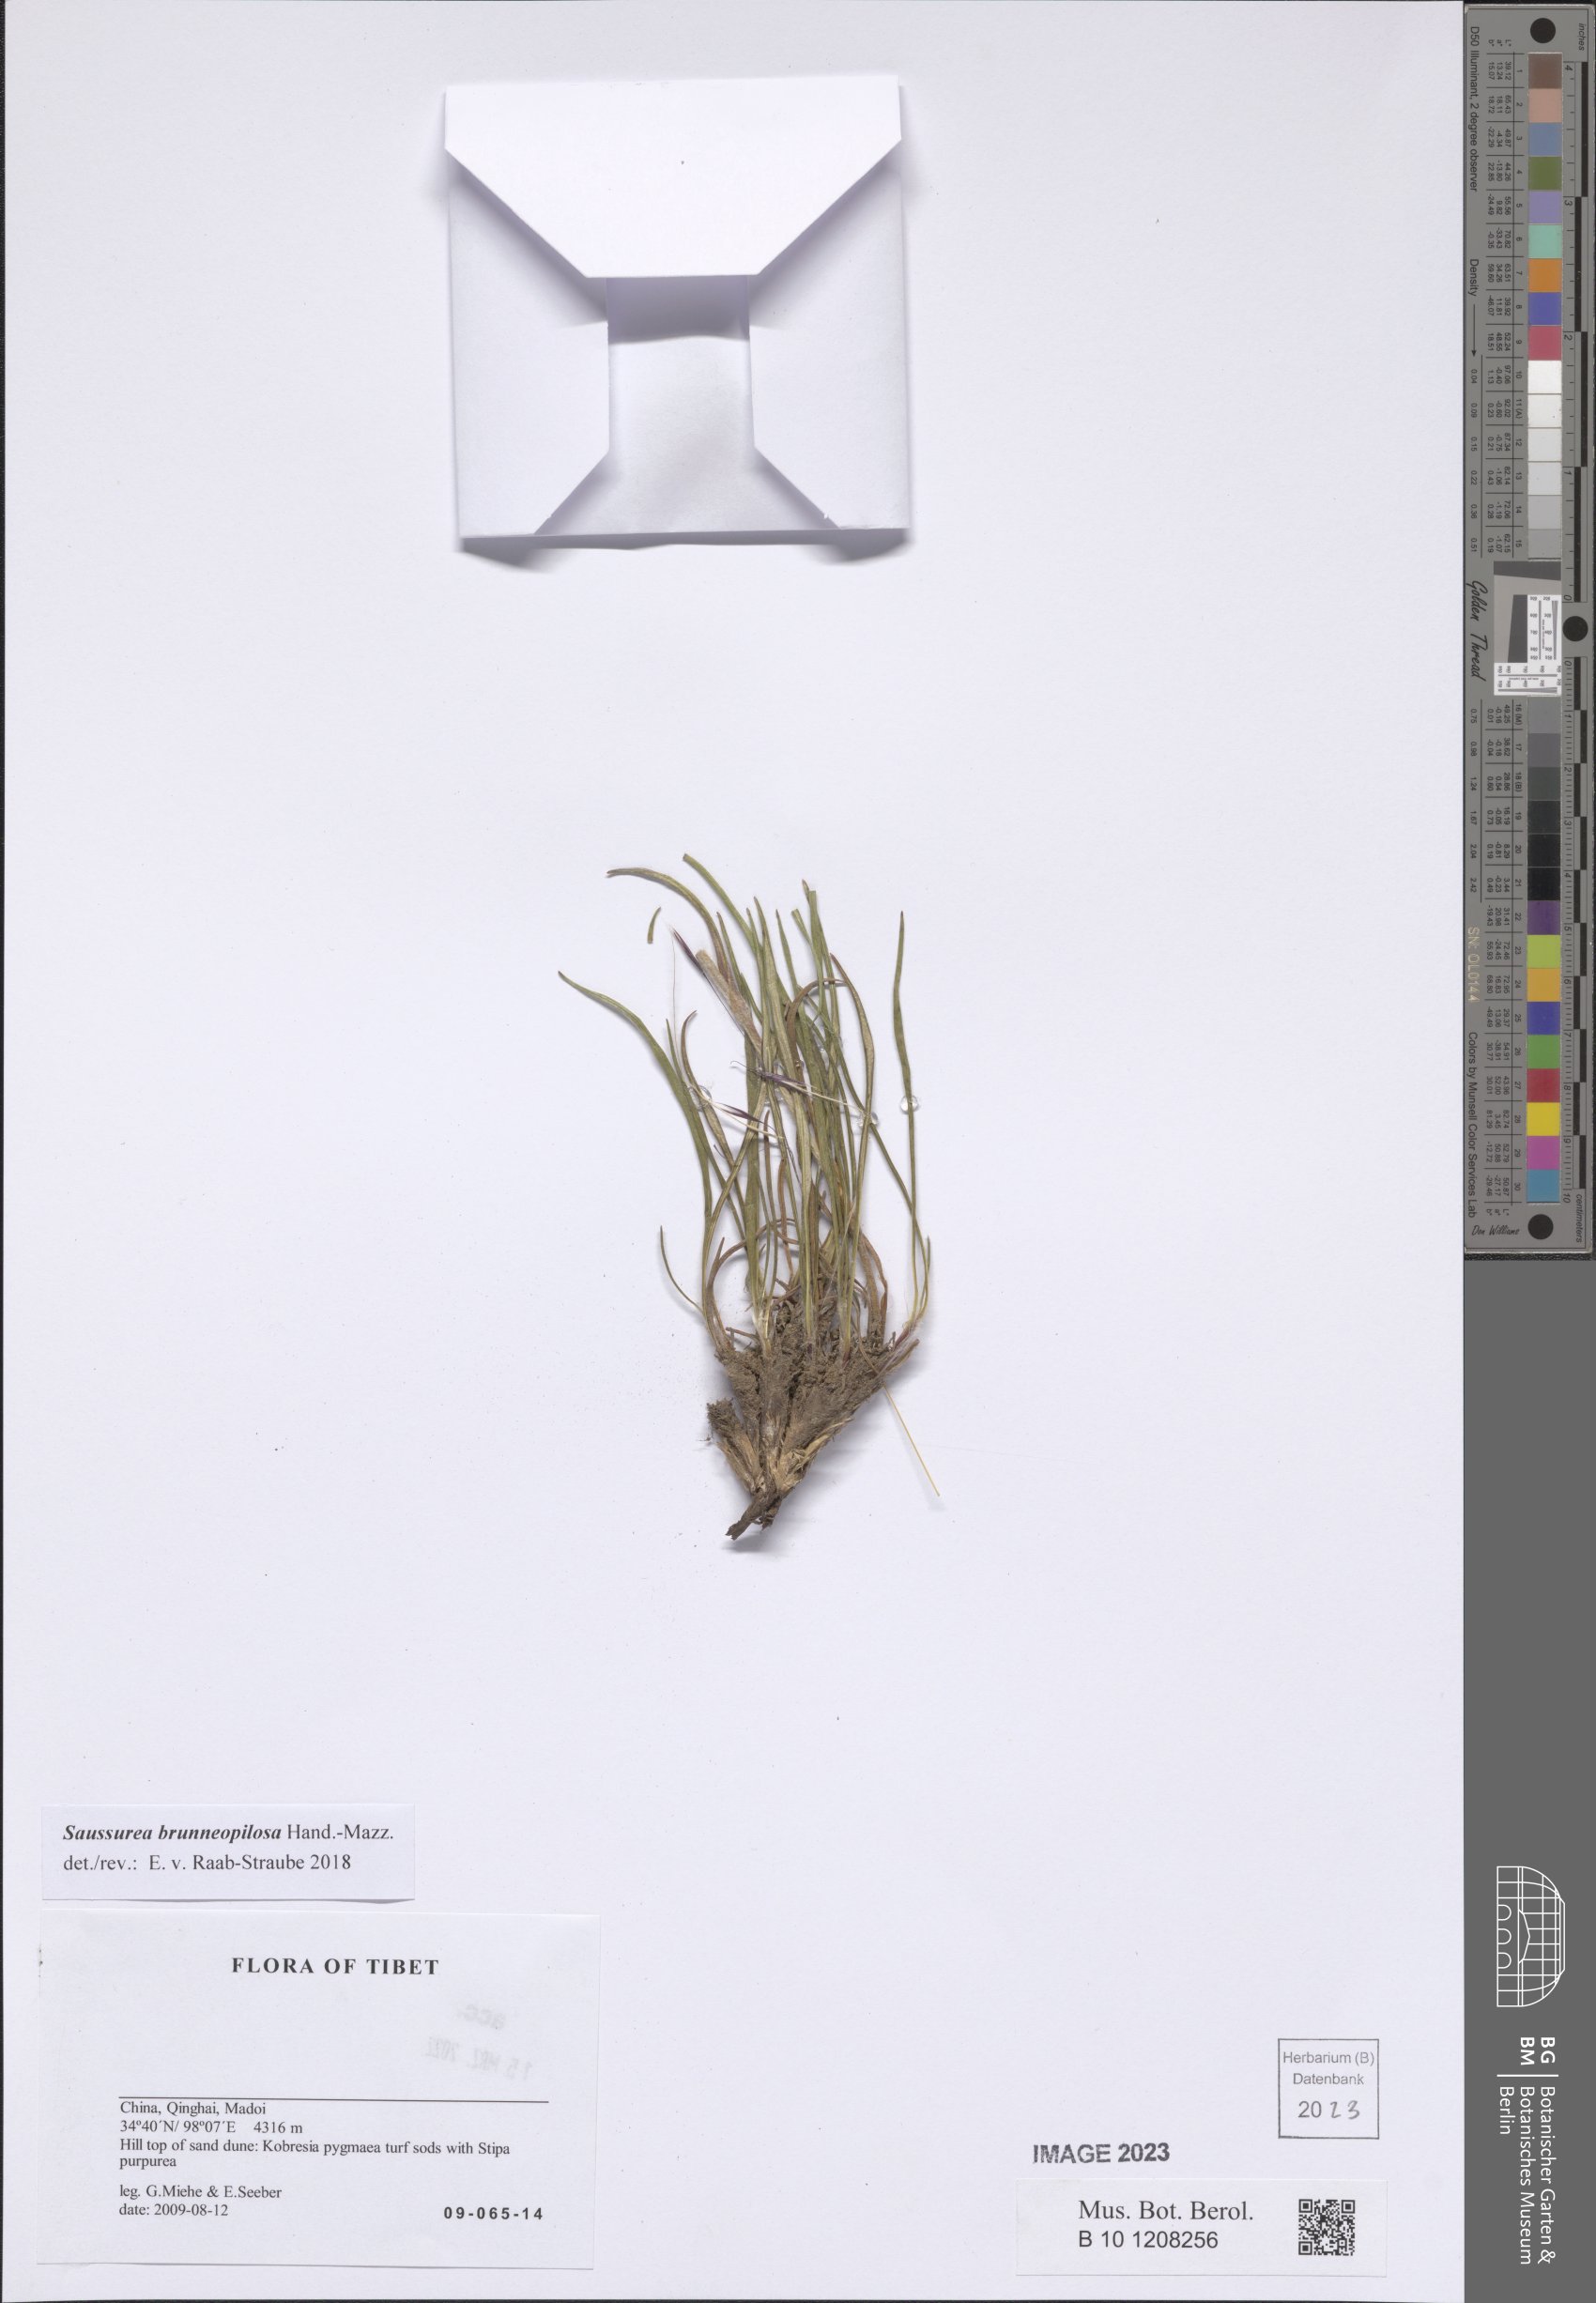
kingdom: Plantae
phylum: Tracheophyta
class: Magnoliopsida
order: Asterales
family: Asteraceae
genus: Saussurea
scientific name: Saussurea brunneopilosa
